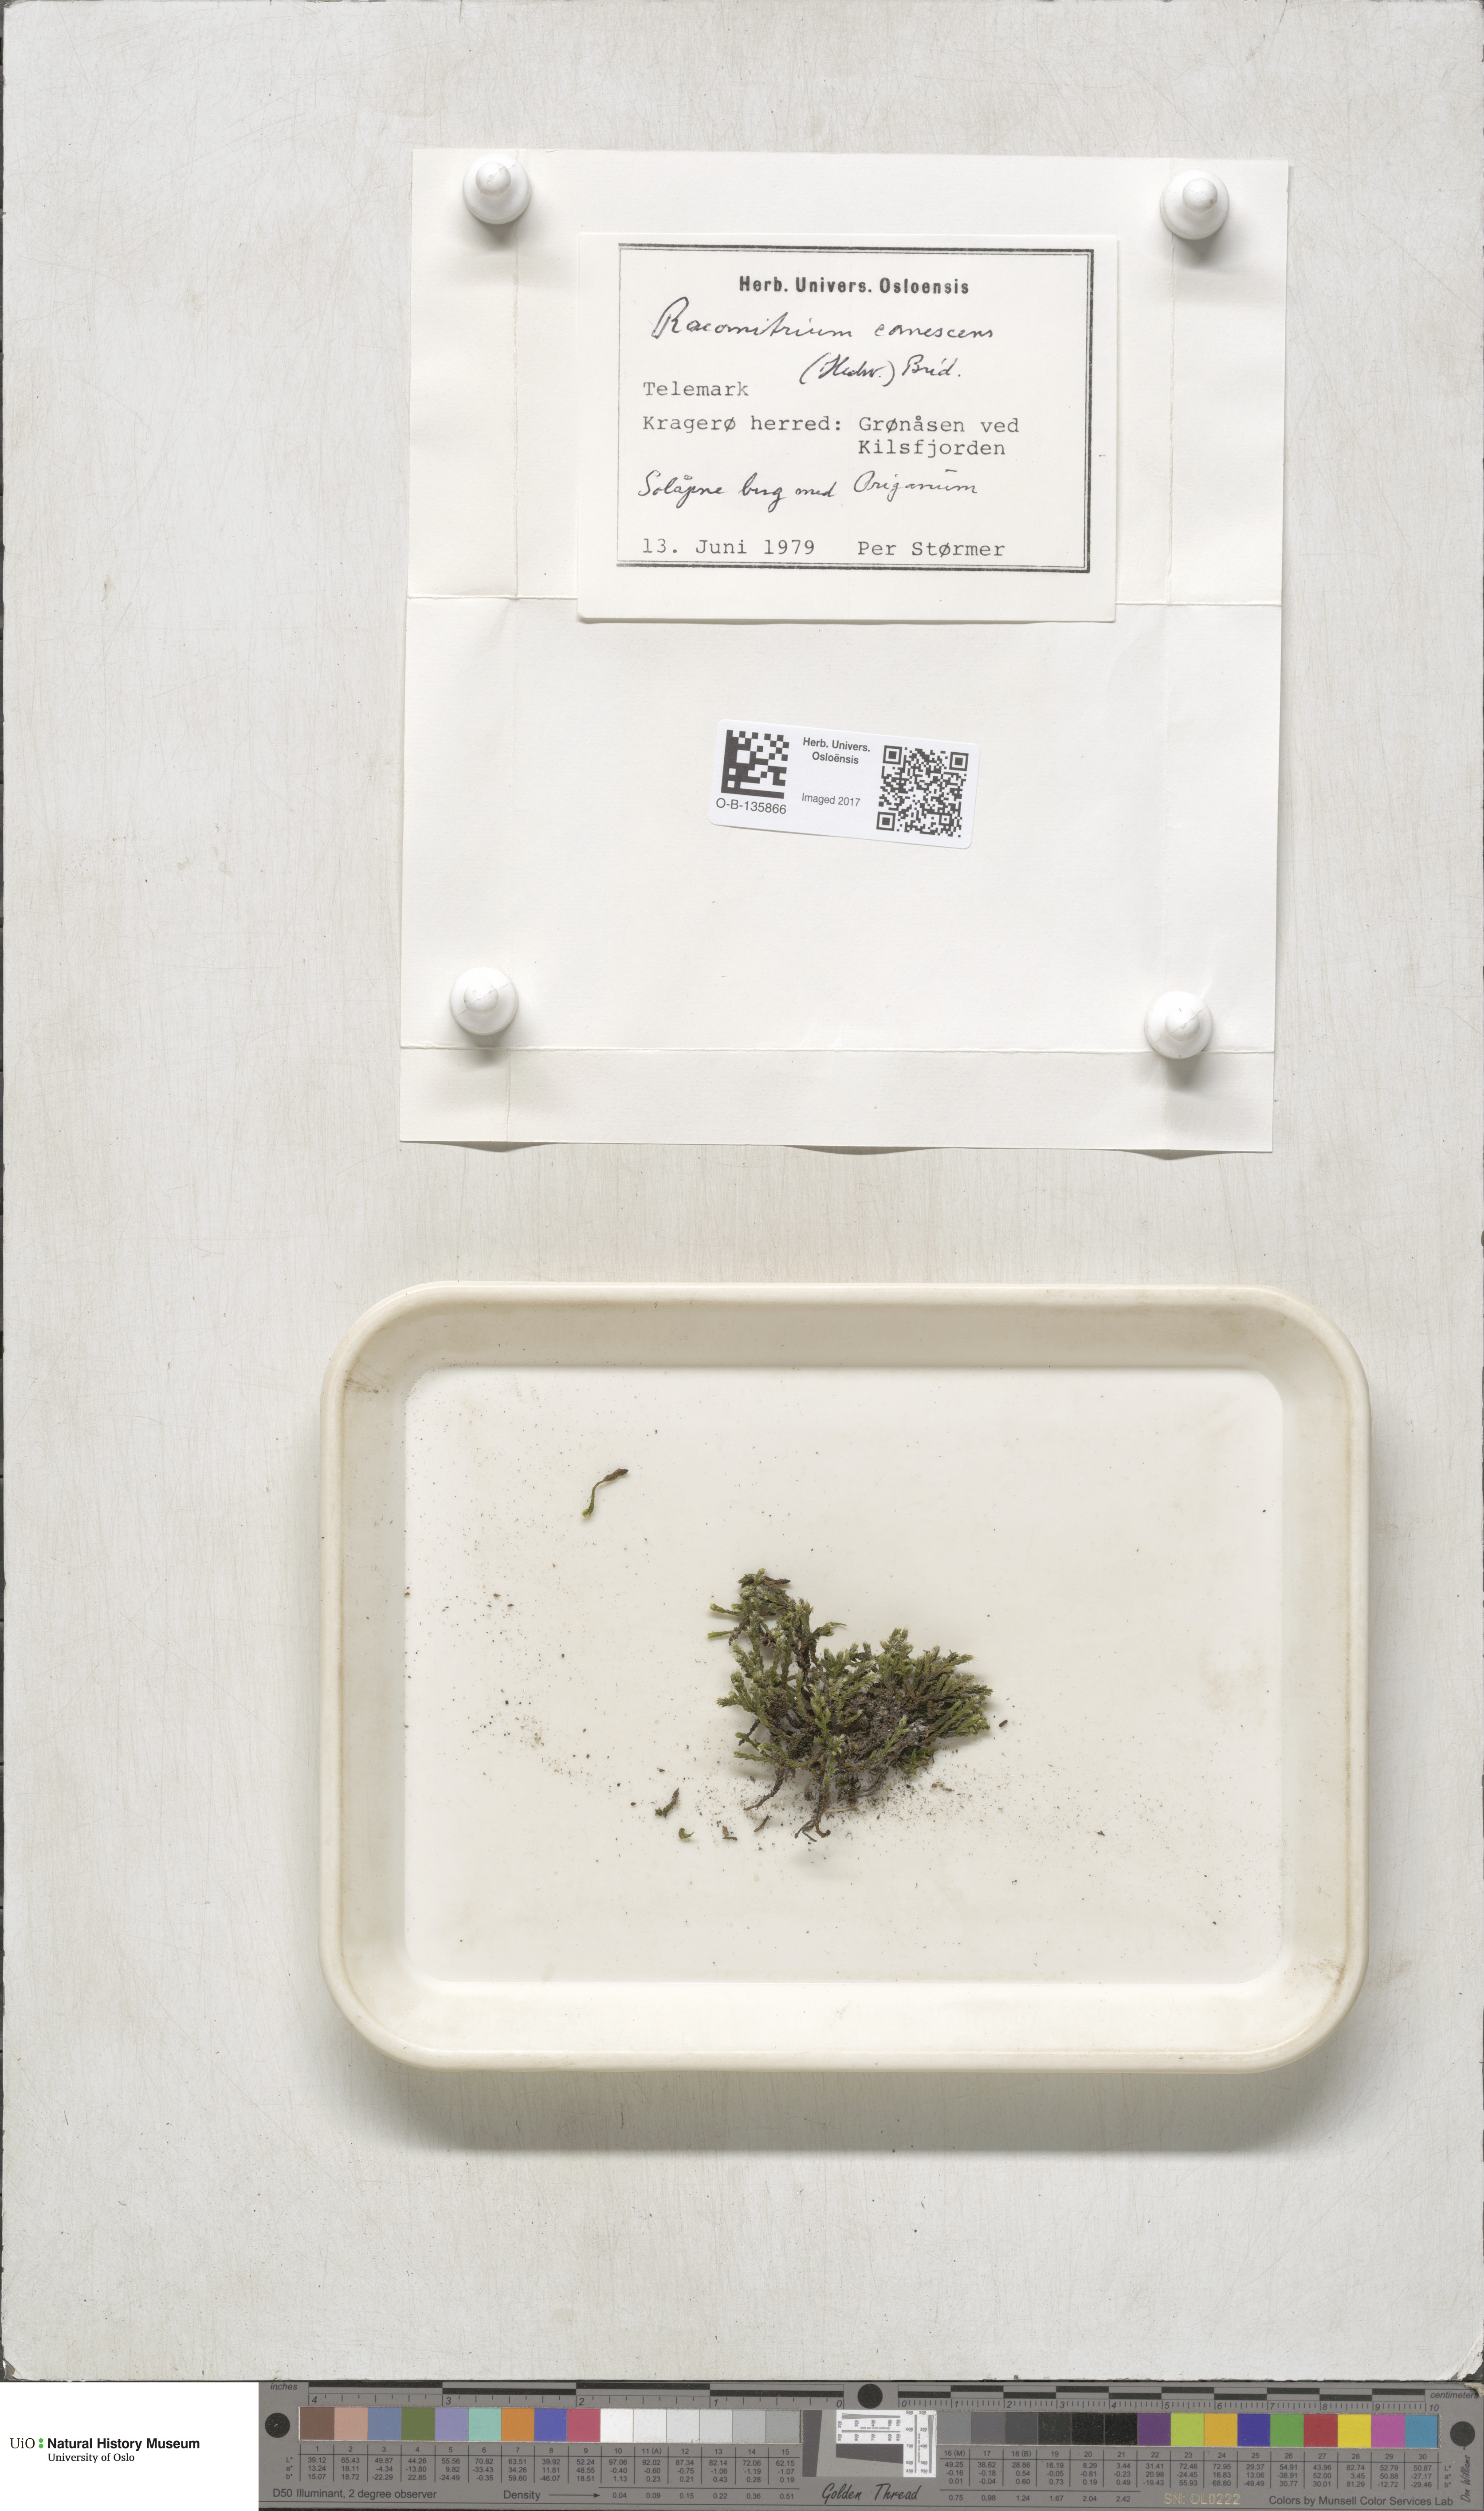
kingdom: Plantae
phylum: Bryophyta
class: Bryopsida
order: Grimmiales
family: Grimmiaceae
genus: Niphotrichum
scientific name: Niphotrichum canescens
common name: Hoary fringe-moss
